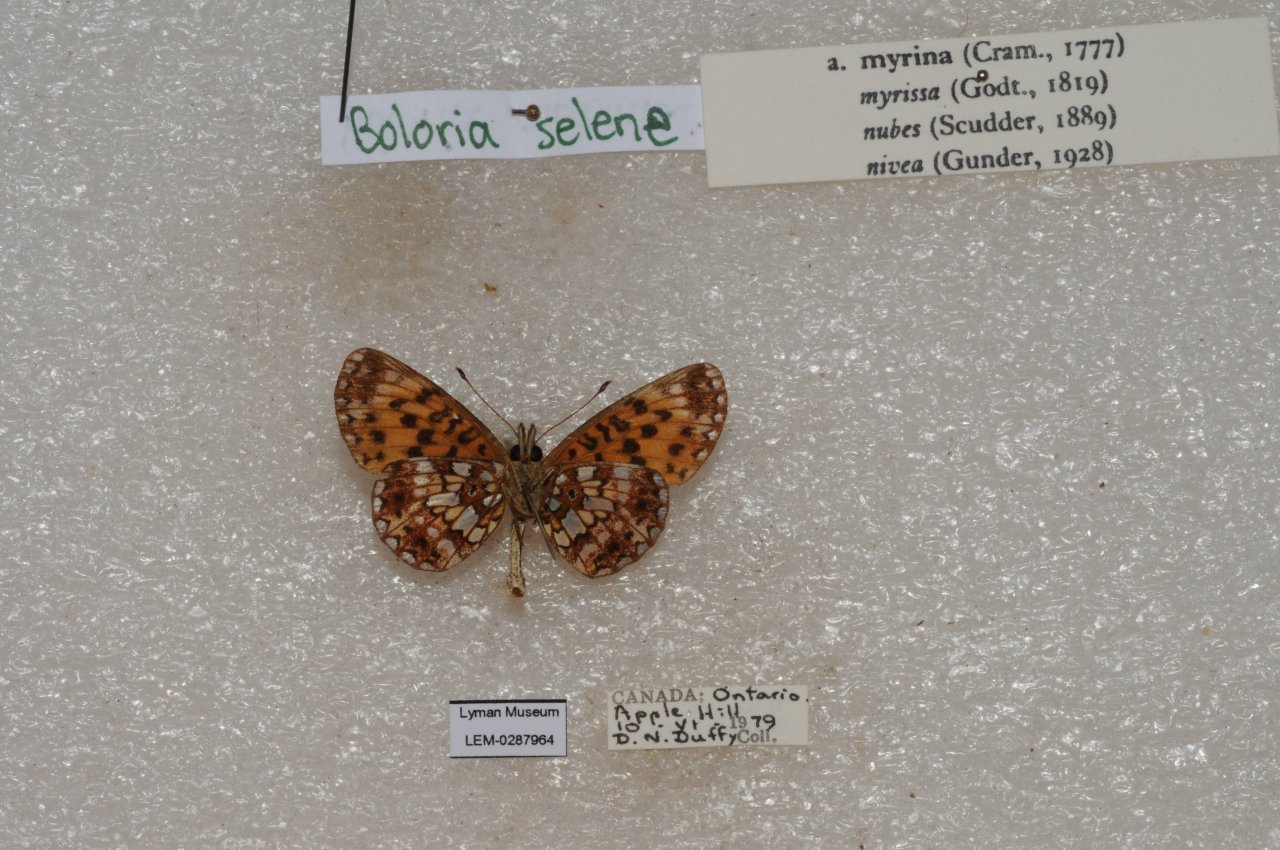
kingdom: Animalia
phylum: Arthropoda
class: Insecta
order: Lepidoptera
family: Nymphalidae
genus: Boloria
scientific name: Boloria selene
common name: Silver-bordered Fritillary
